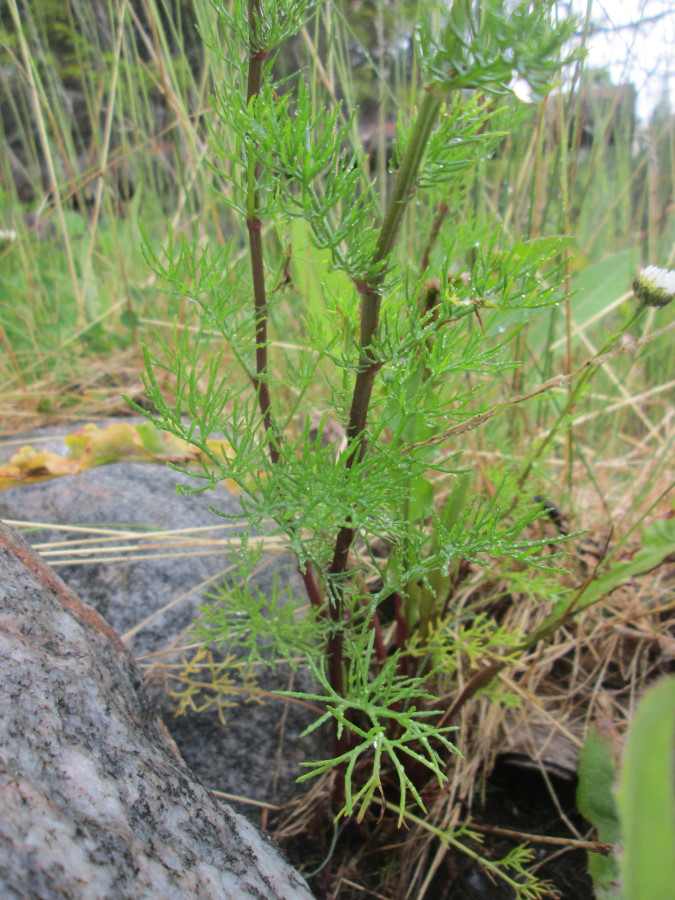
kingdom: Plantae
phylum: Tracheophyta
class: Magnoliopsida
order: Asterales
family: Asteraceae
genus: Tripleurospermum
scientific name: Tripleurospermum maritimum
